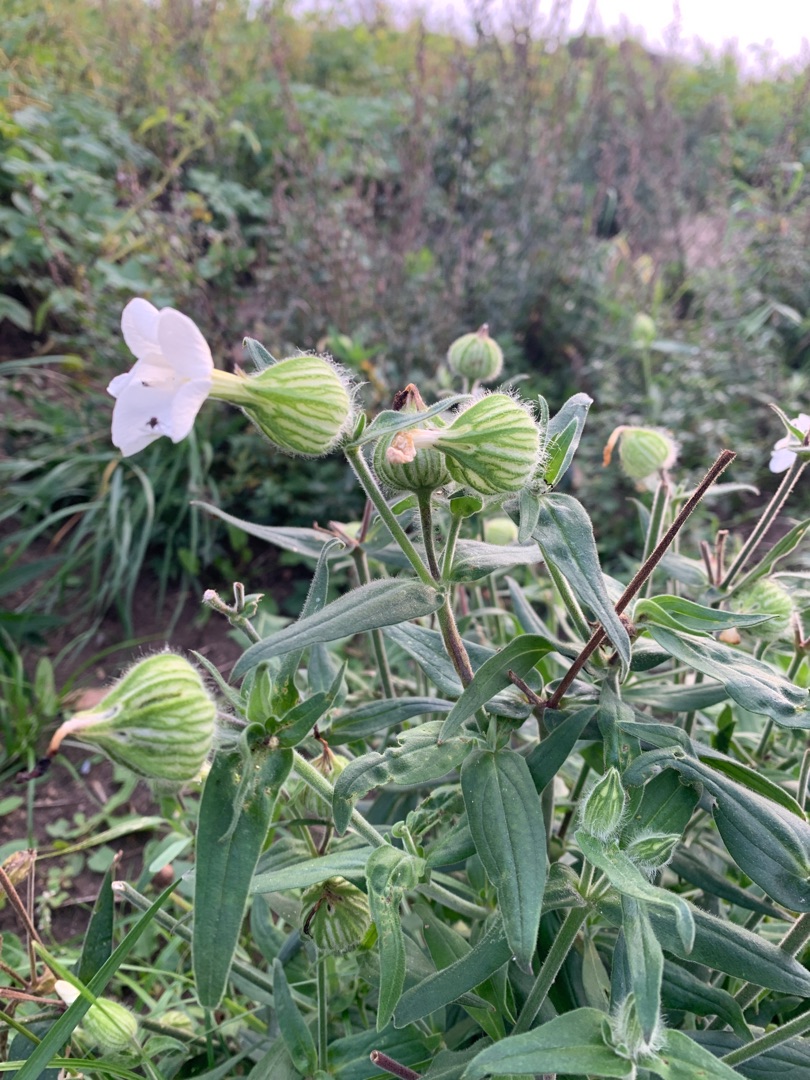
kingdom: Plantae
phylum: Tracheophyta
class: Magnoliopsida
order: Caryophyllales
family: Caryophyllaceae
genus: Silene
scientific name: Silene latifolia
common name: Aftenpragtstjerne
